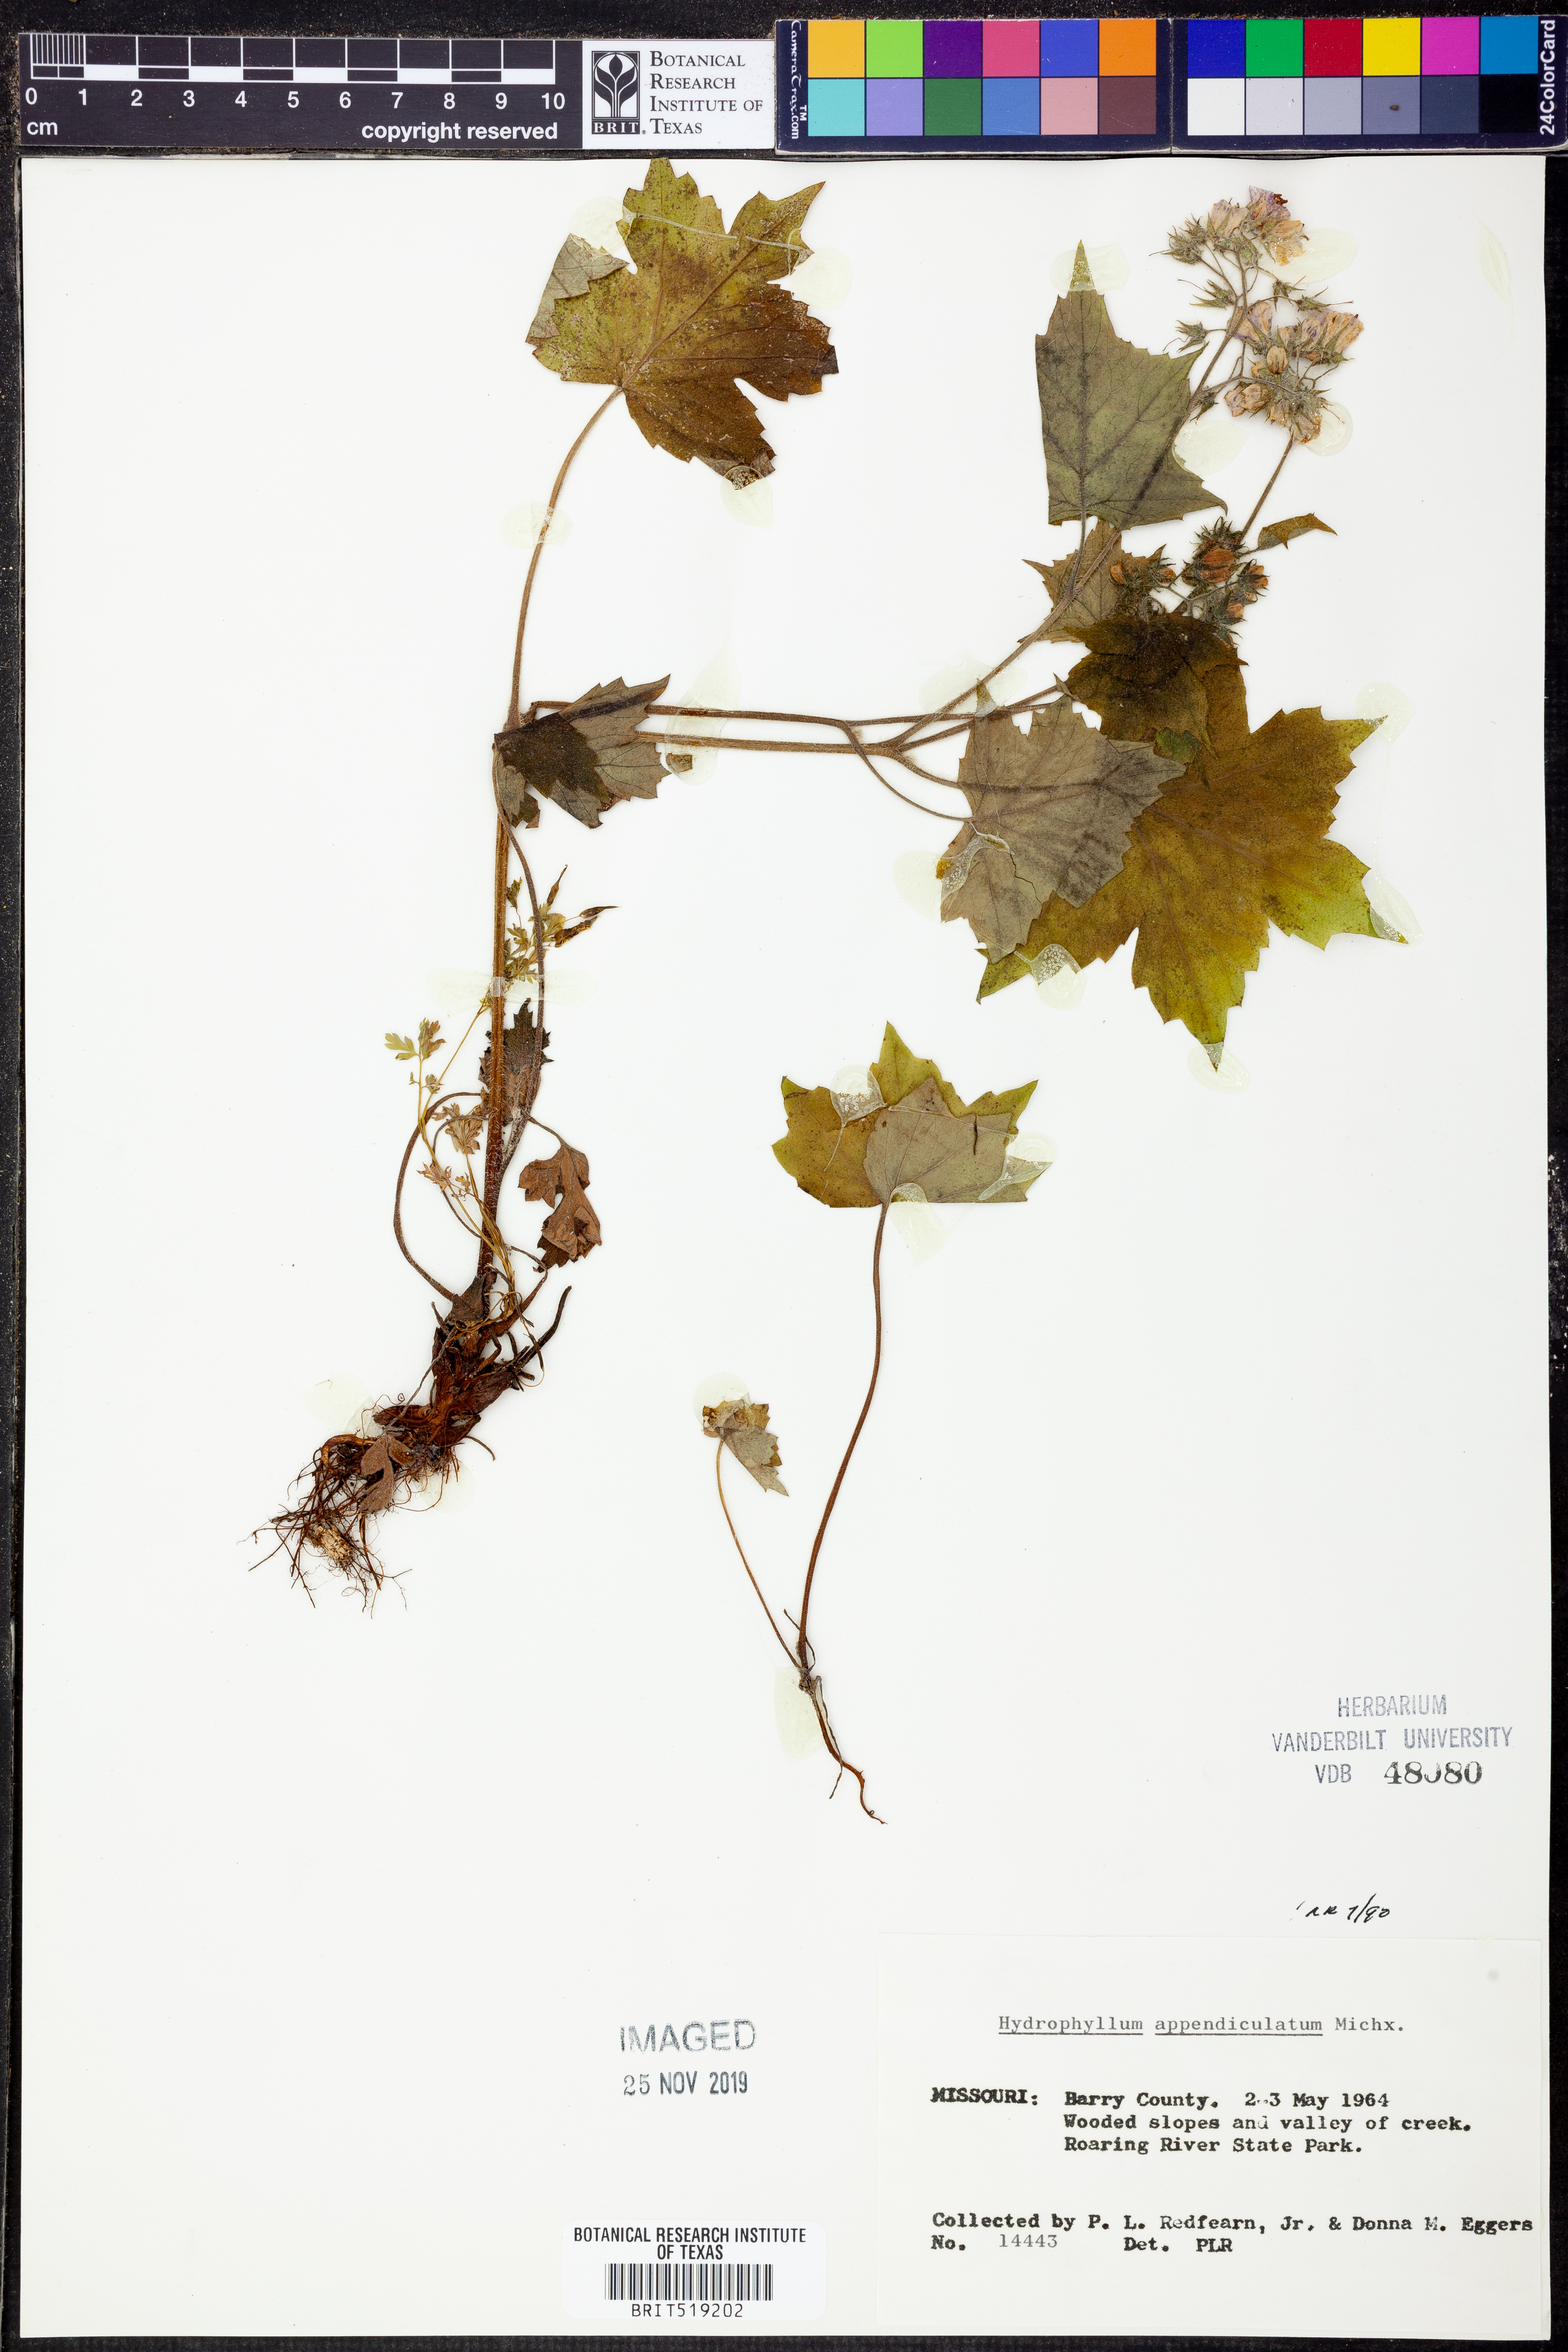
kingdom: Plantae
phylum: Tracheophyta
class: Magnoliopsida
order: Boraginales
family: Hydrophyllaceae
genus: Hydrophyllum
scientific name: Hydrophyllum appendiculatum
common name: Appendaged waterleaf
